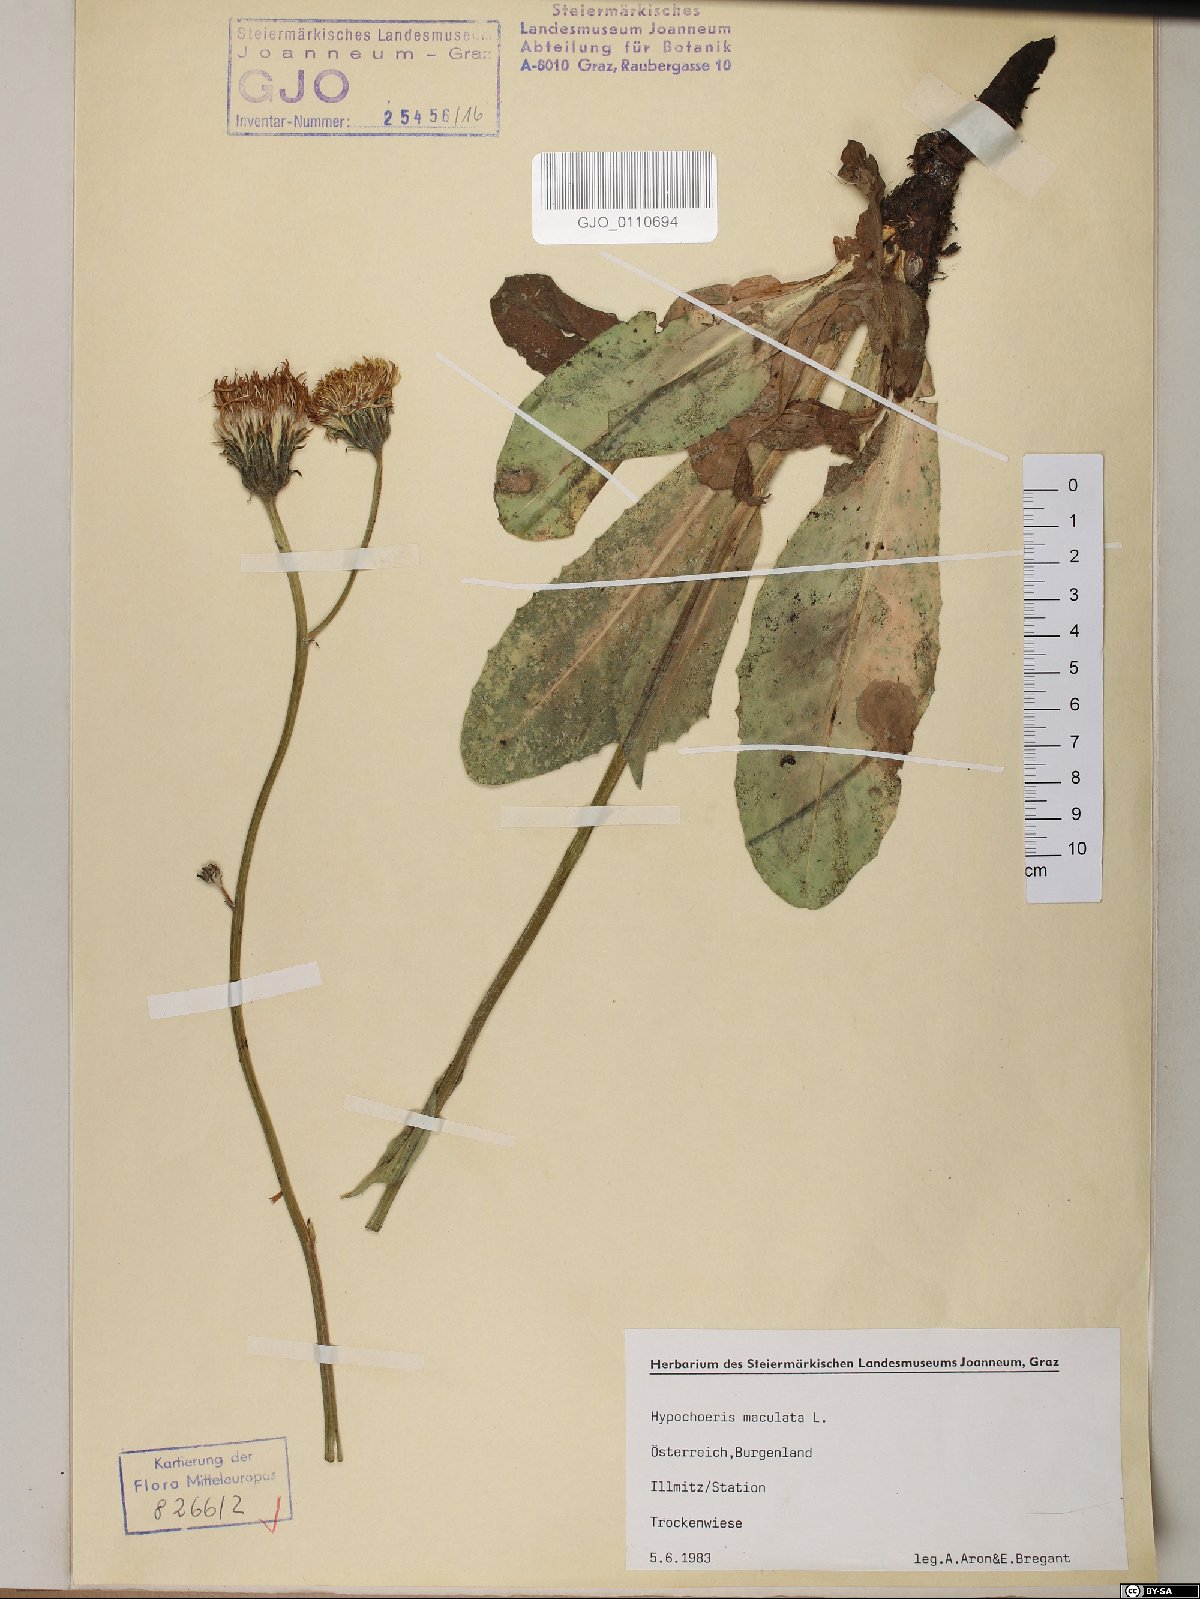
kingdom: Plantae
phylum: Tracheophyta
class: Magnoliopsida
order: Asterales
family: Asteraceae
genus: Trommsdorffia
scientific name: Trommsdorffia maculata
